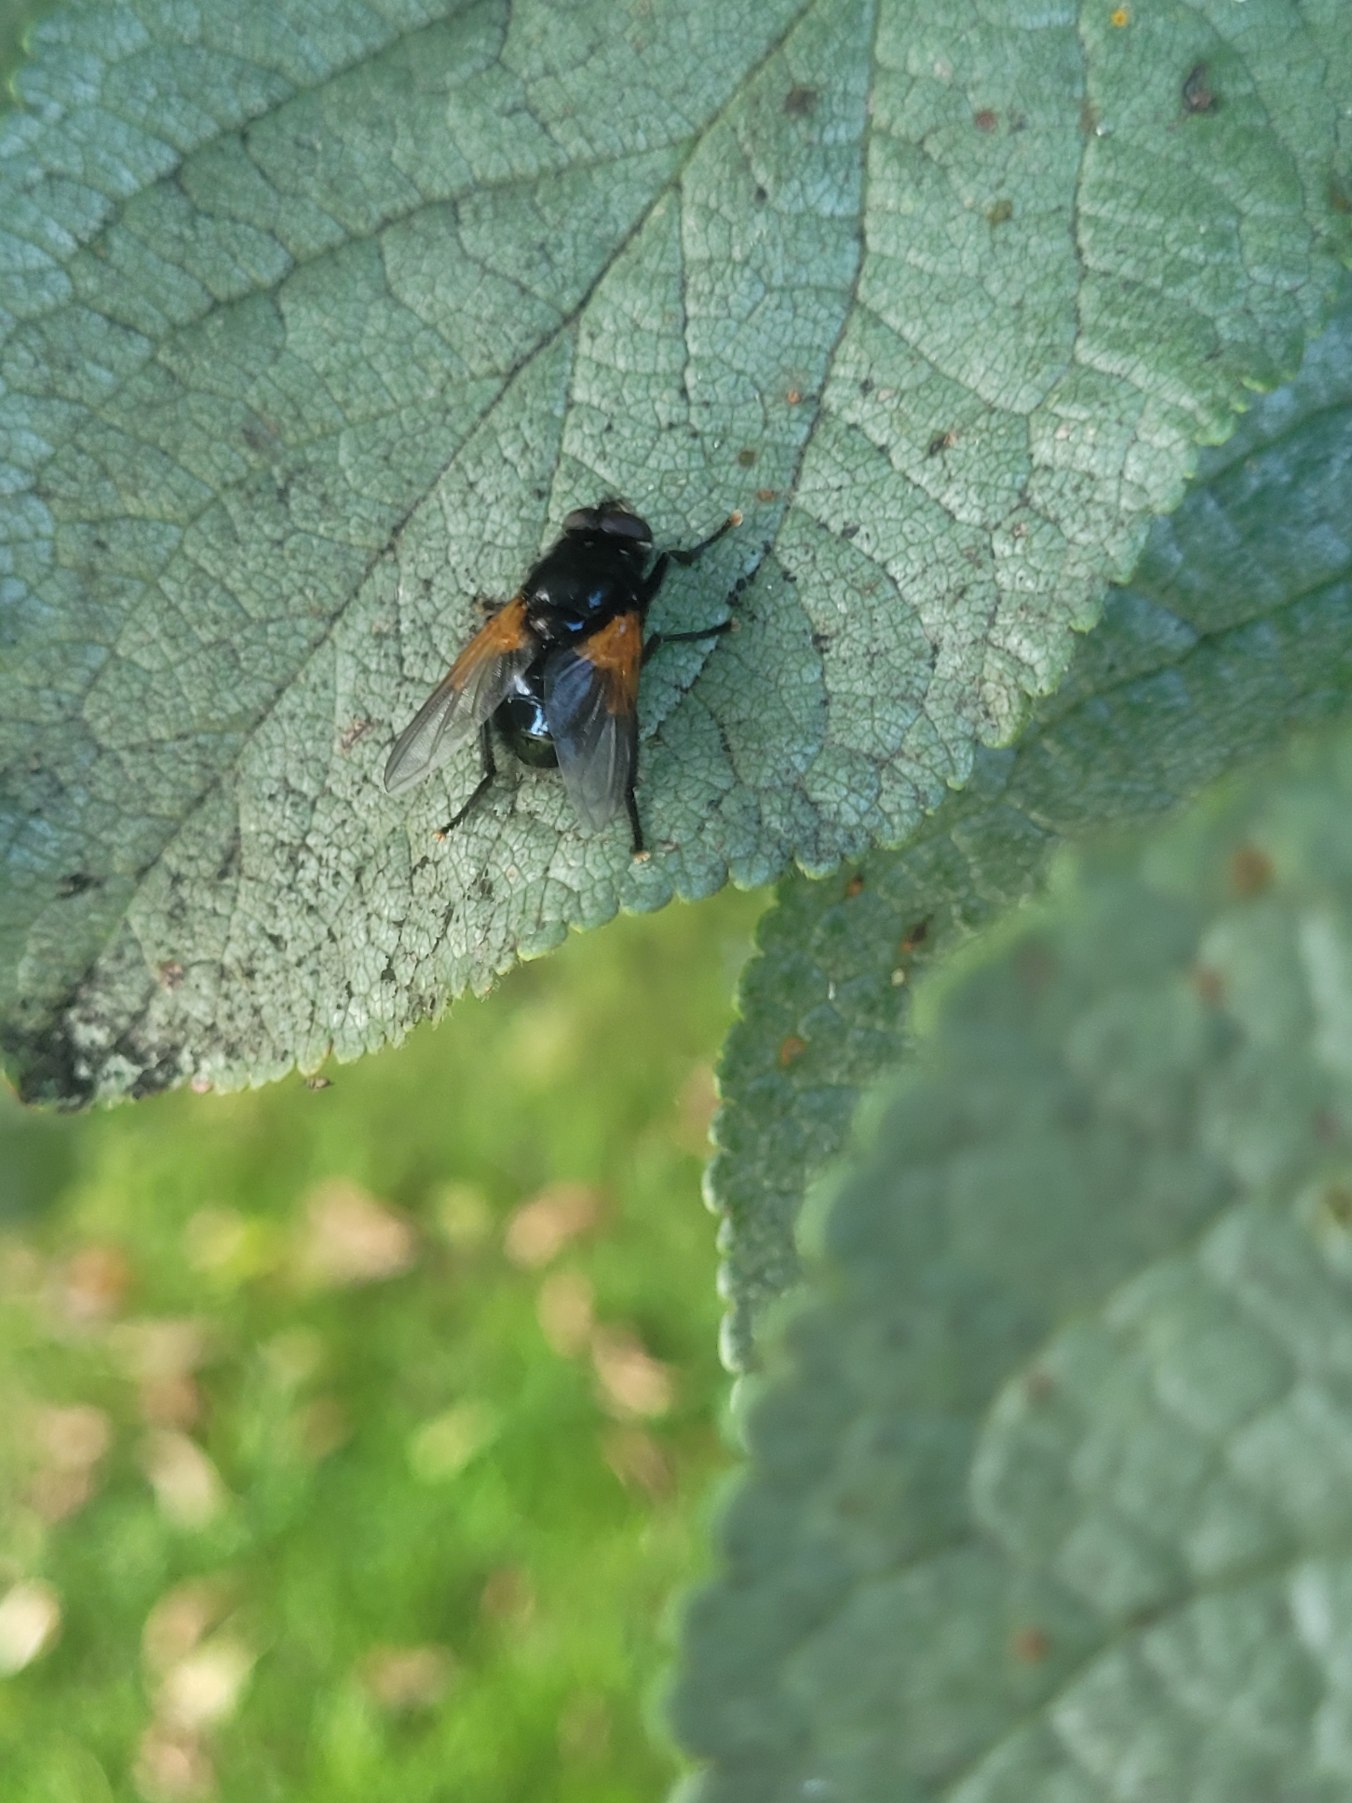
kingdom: Animalia
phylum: Arthropoda
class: Insecta
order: Diptera
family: Muscidae
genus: Mesembrina
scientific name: Mesembrina meridiana
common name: Gulvinget flue
